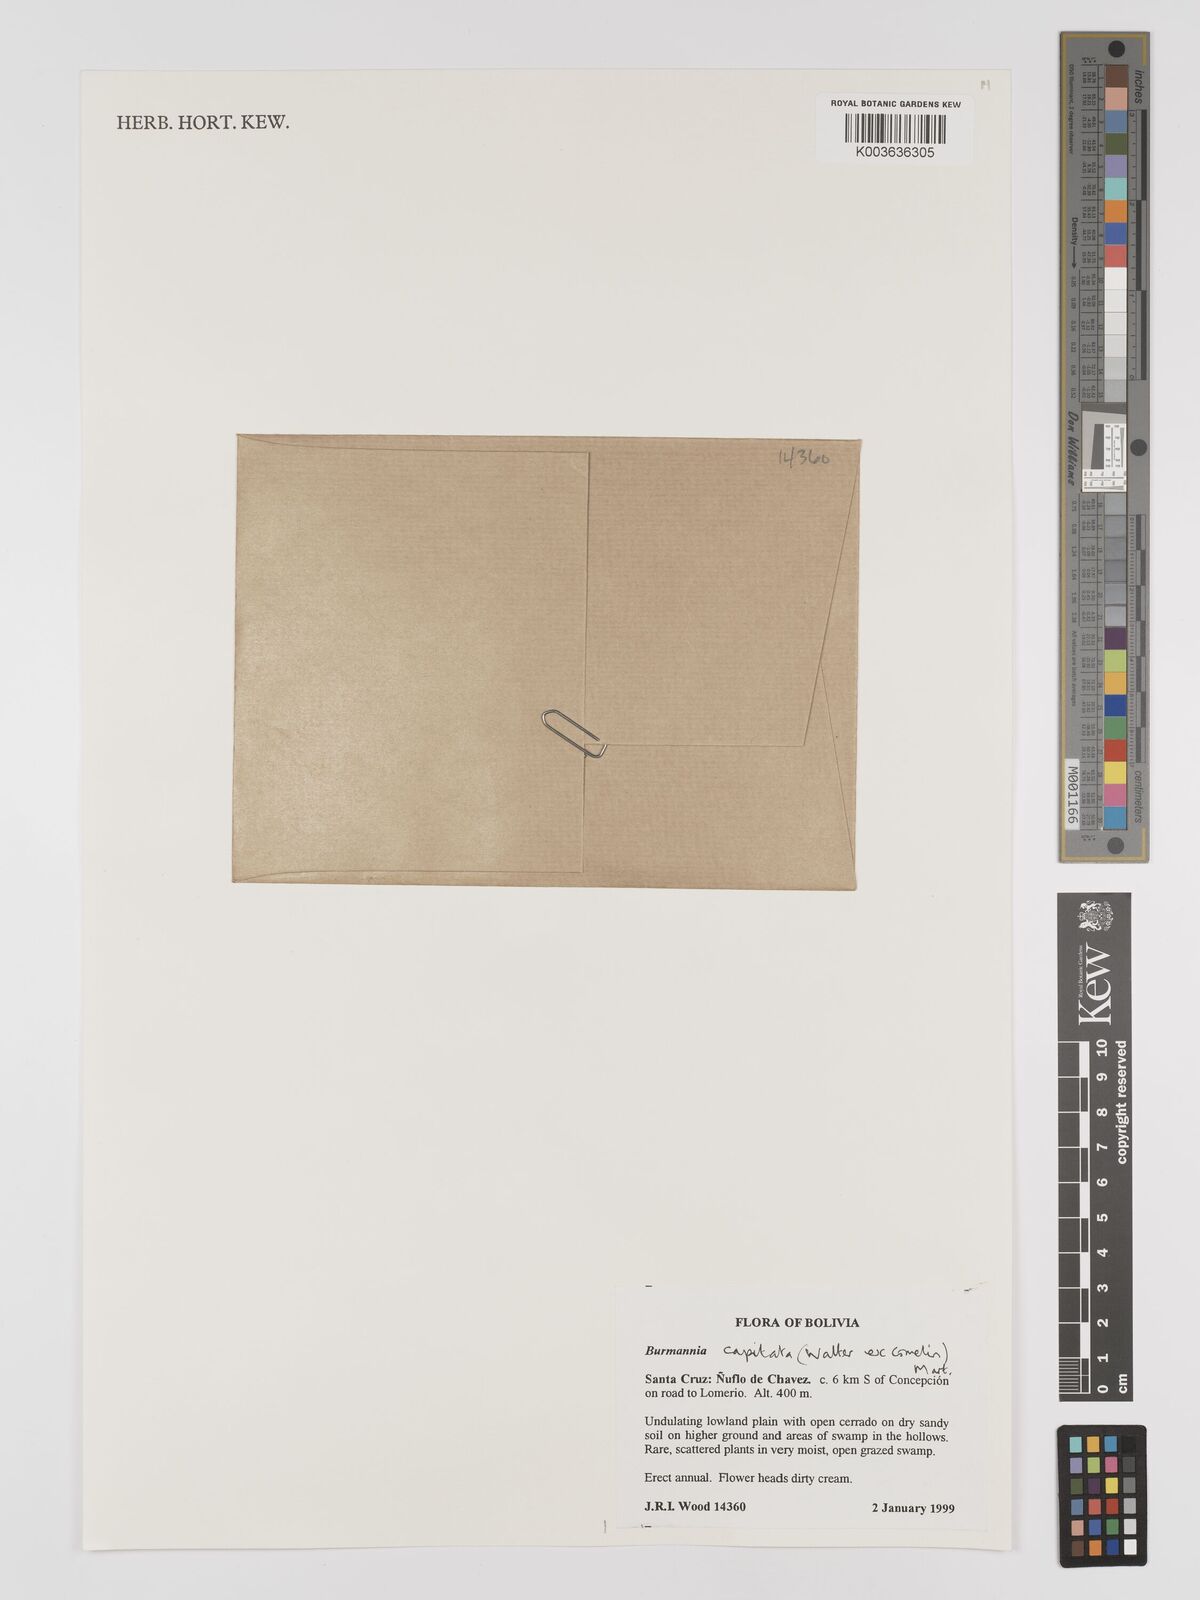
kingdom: Plantae
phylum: Tracheophyta
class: Liliopsida
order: Dioscoreales
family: Burmanniaceae
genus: Burmannia
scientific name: Burmannia capitata
